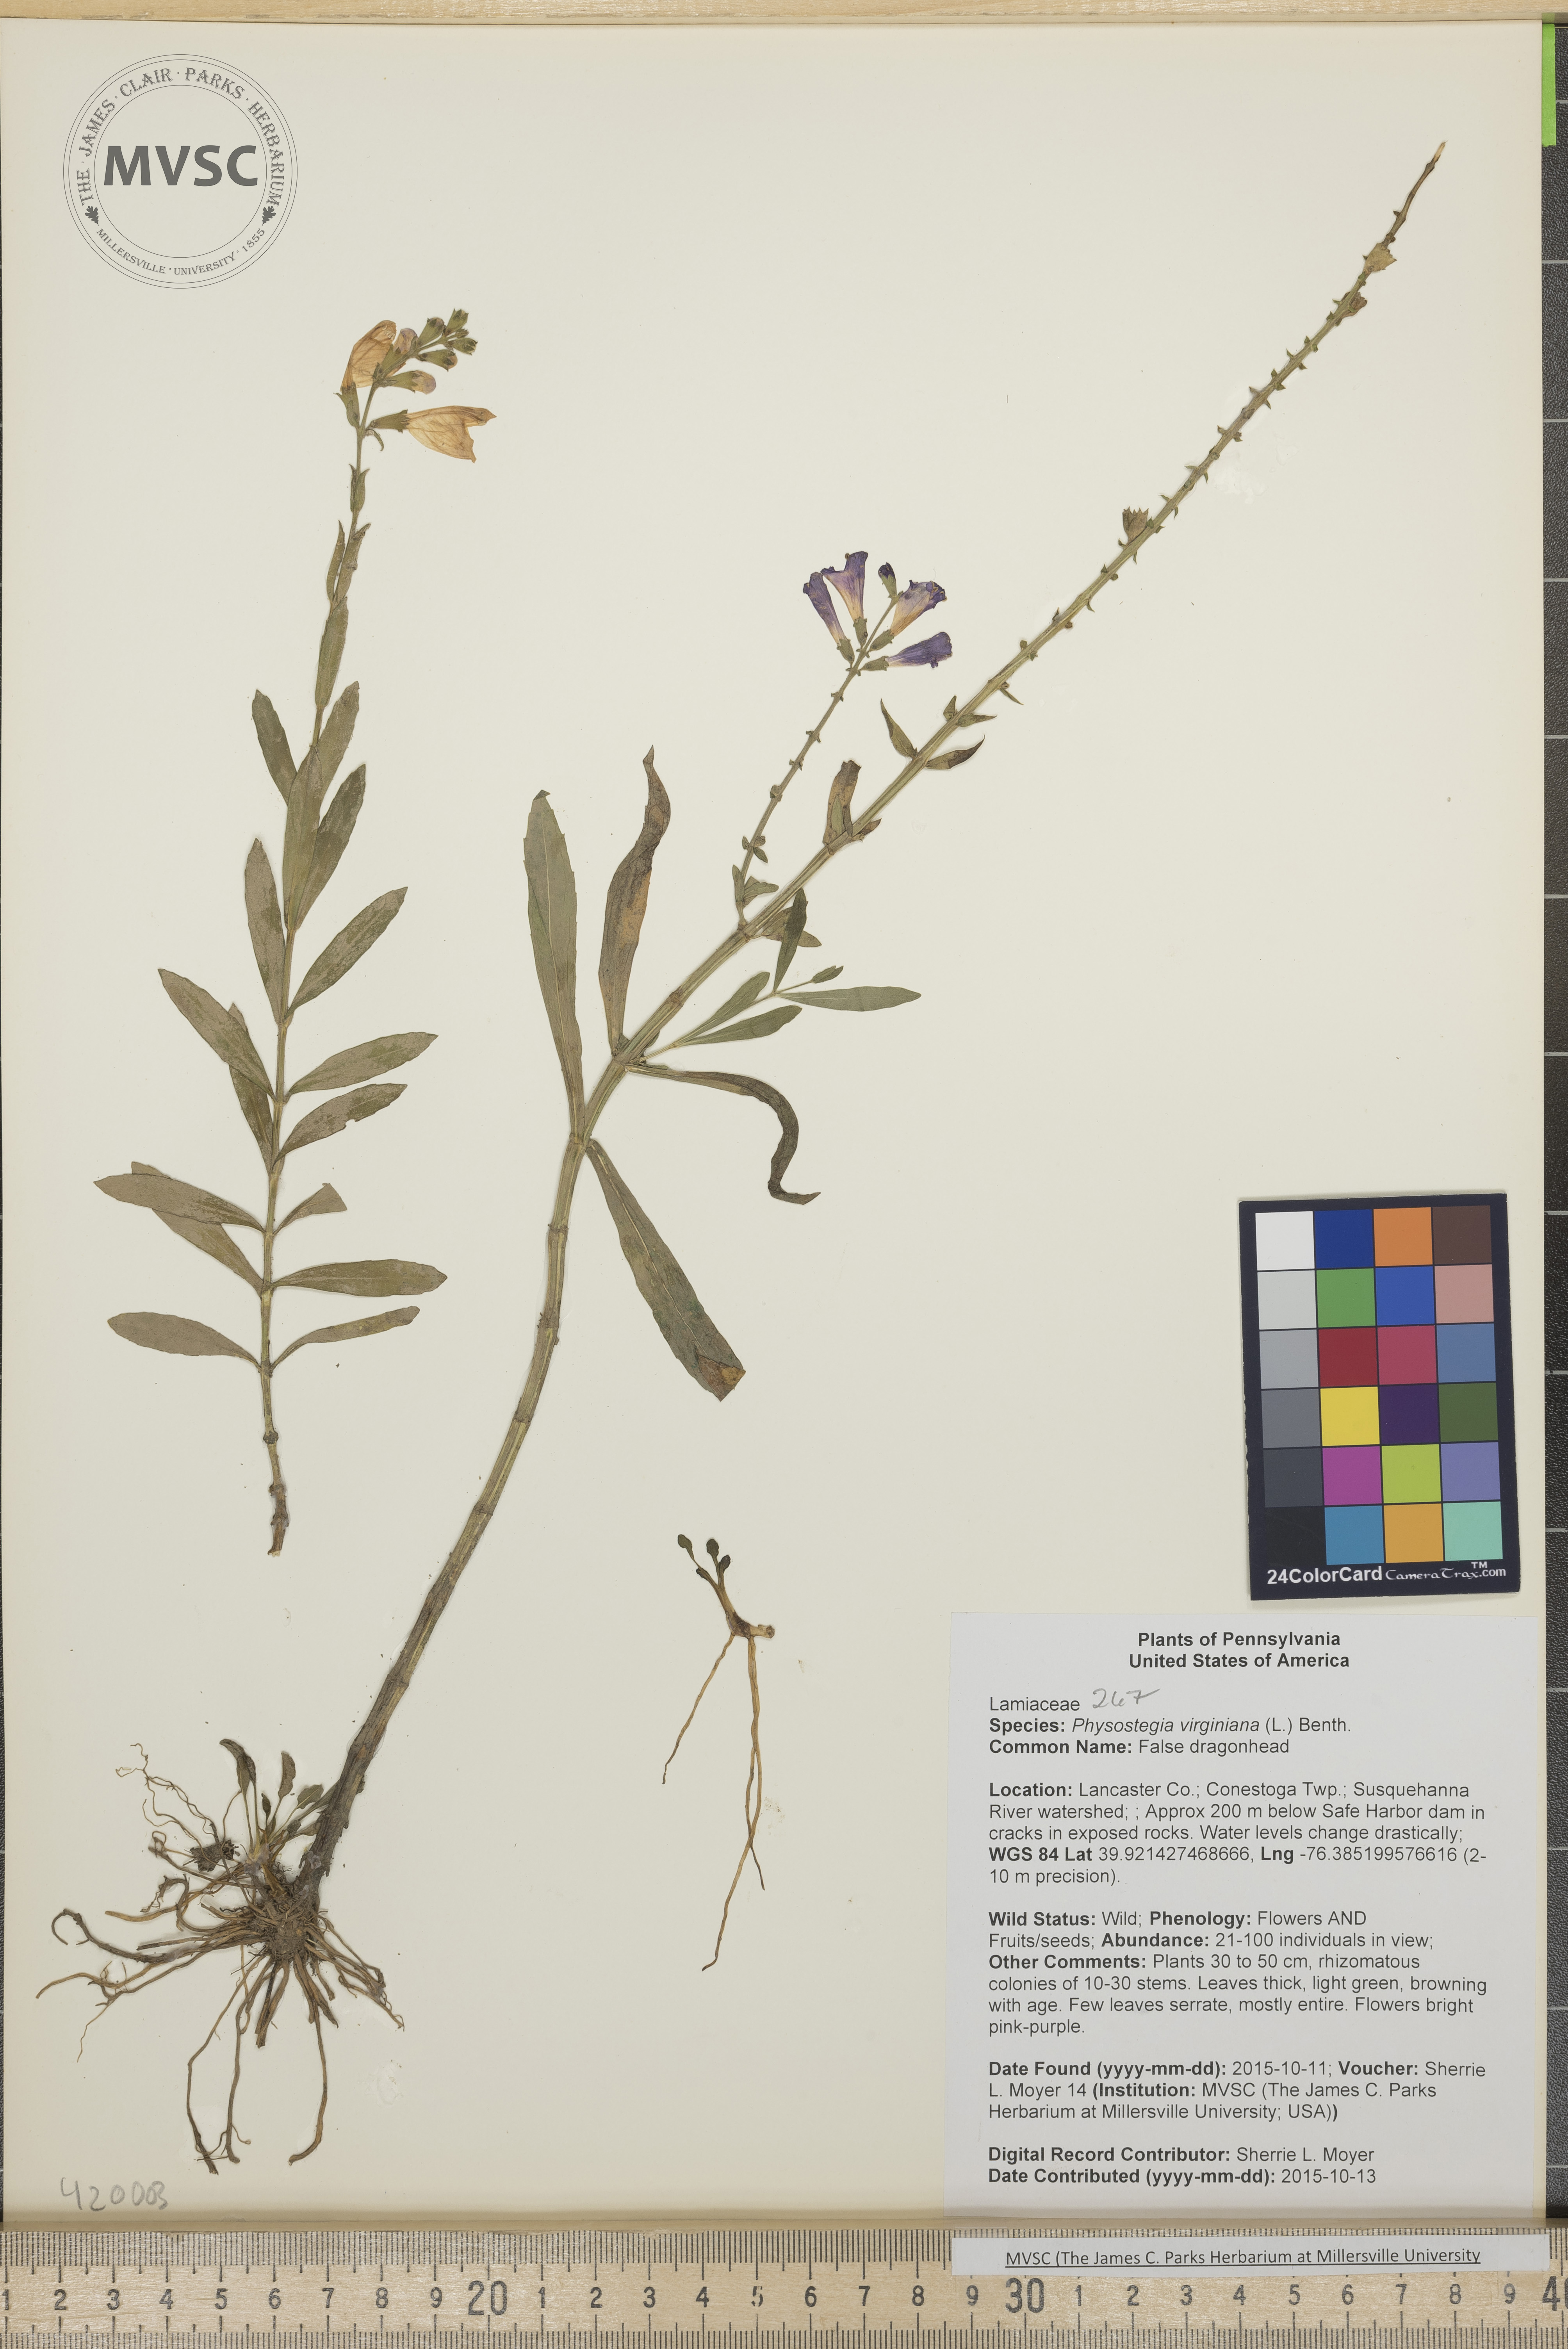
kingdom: Plantae
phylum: Tracheophyta
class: Magnoliopsida
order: Lamiales
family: Lamiaceae
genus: Physostegia
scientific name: Physostegia virginiana
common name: False dragonhead
